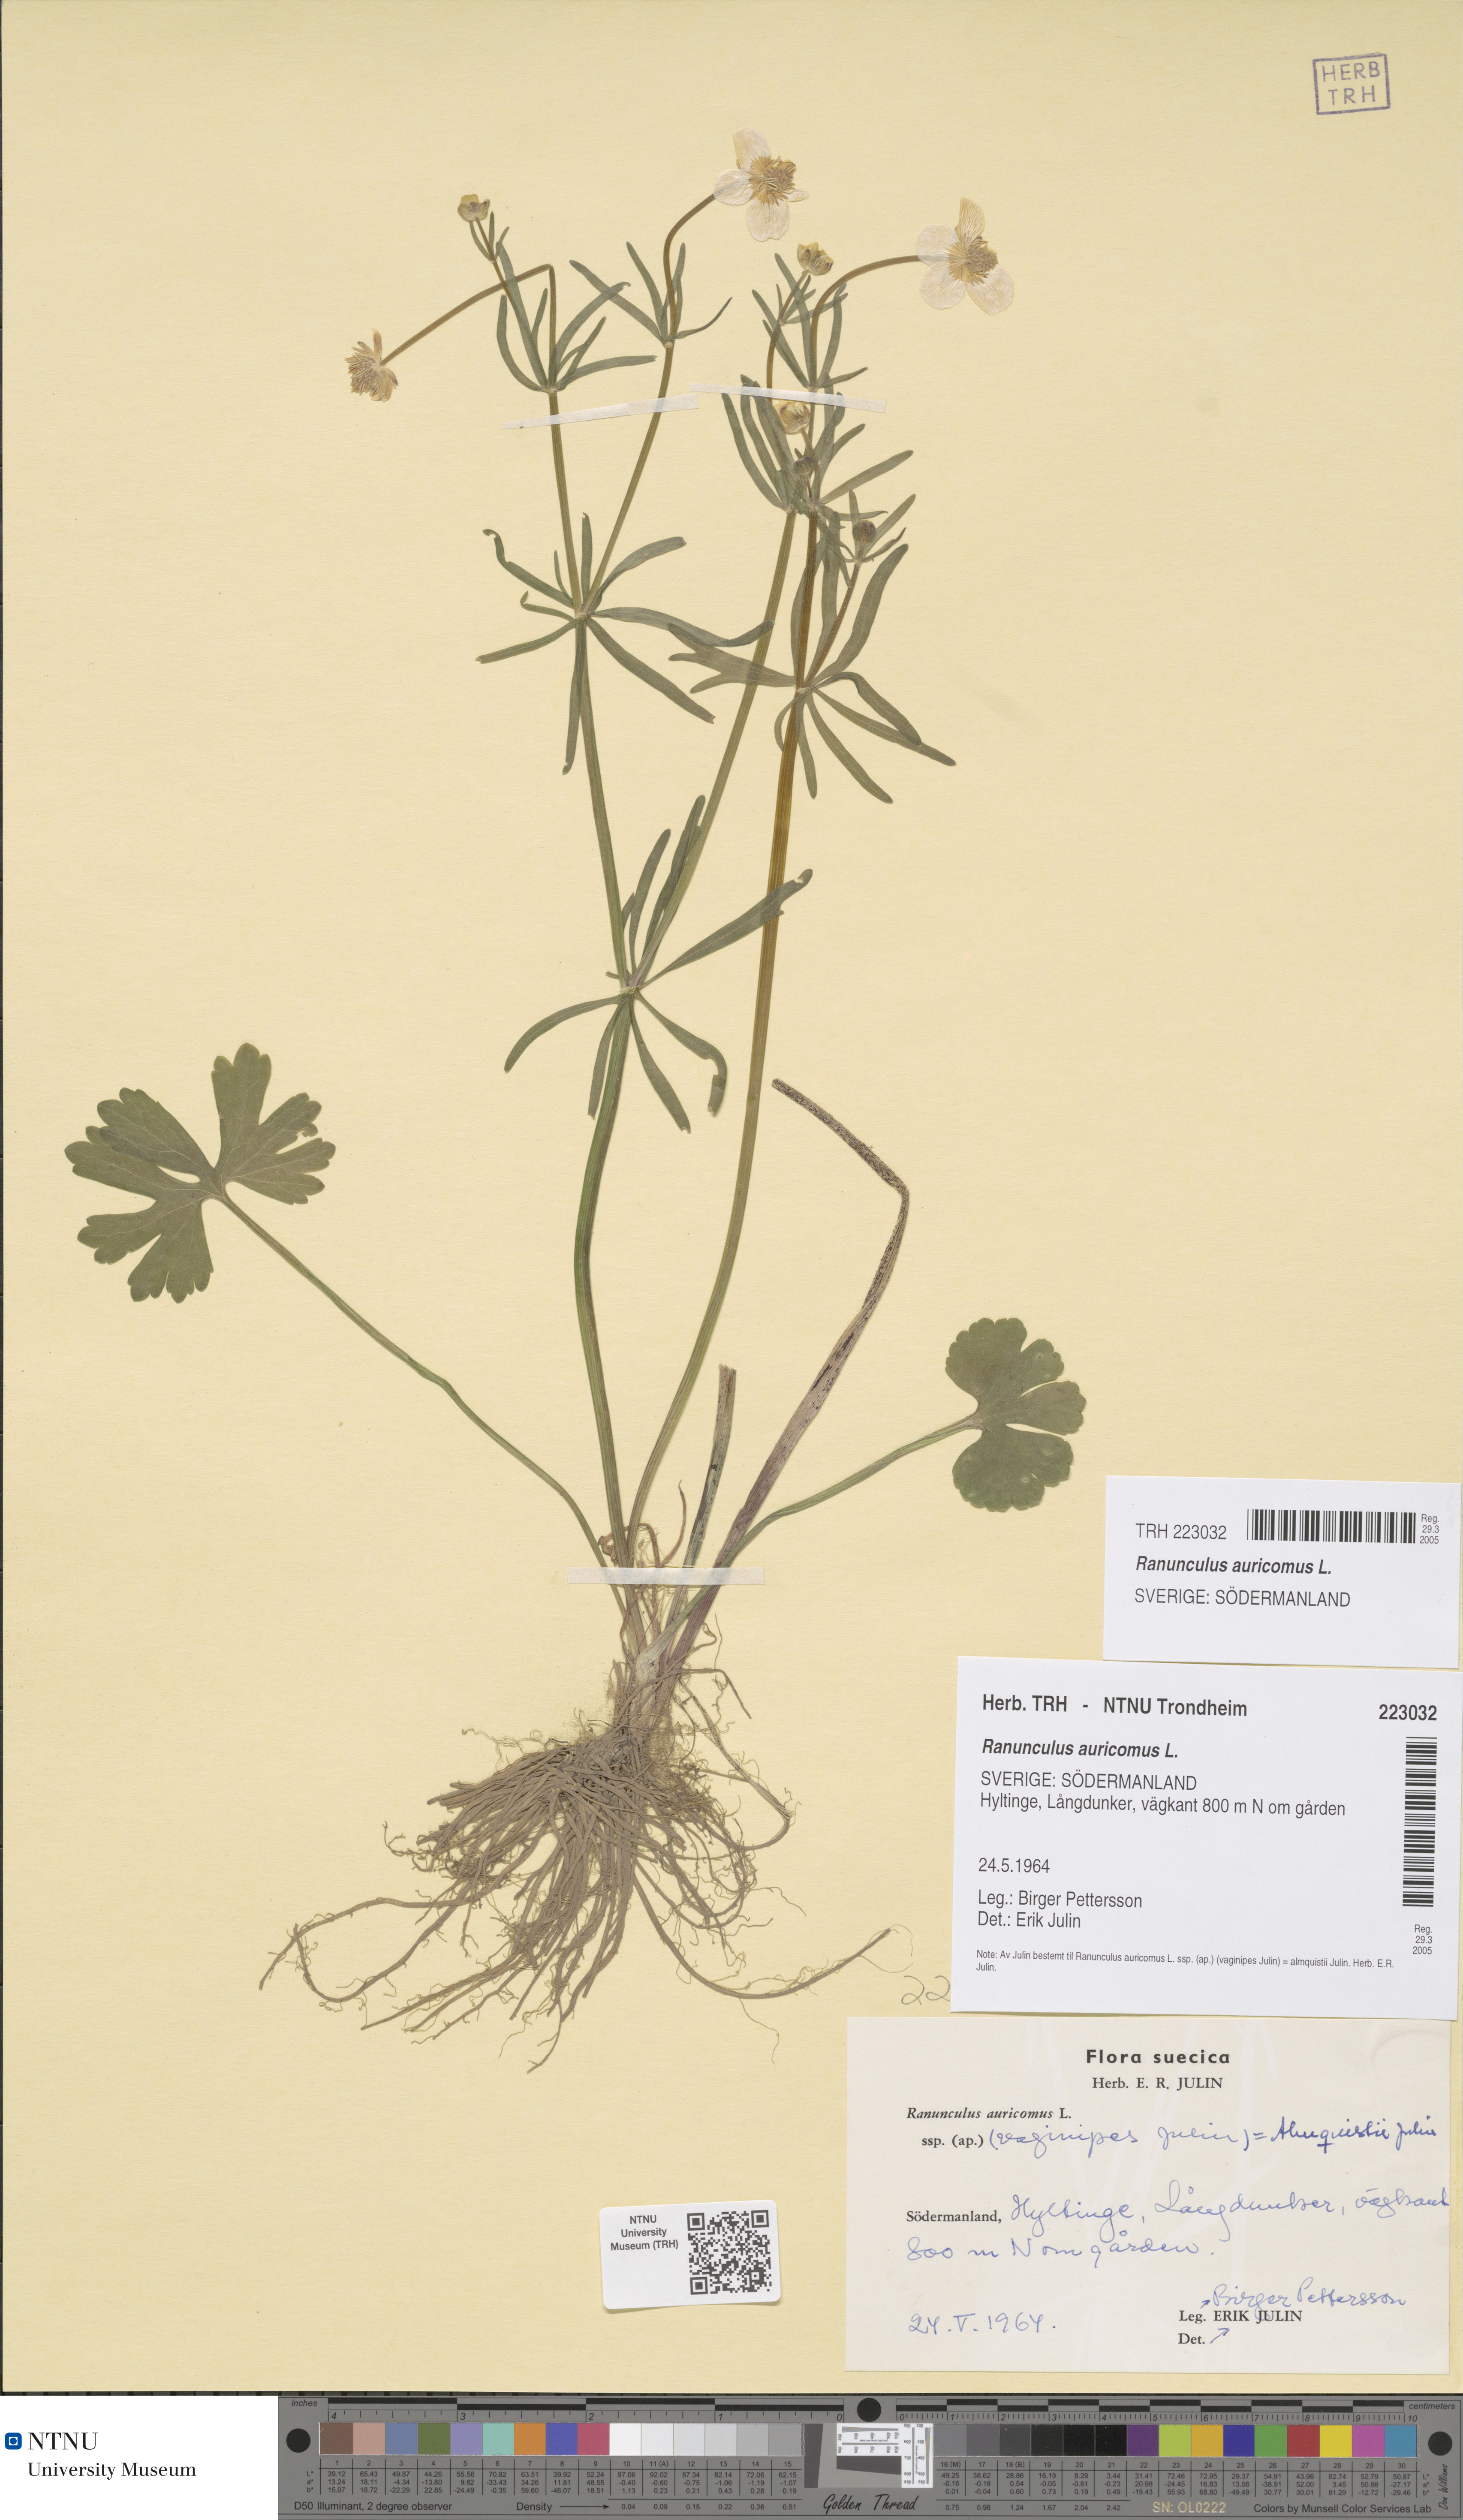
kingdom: Plantae
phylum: Tracheophyta
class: Magnoliopsida
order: Ranunculales
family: Ranunculaceae
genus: Ranunculus
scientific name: Ranunculus auricomus
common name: Goldilocks buttercup
